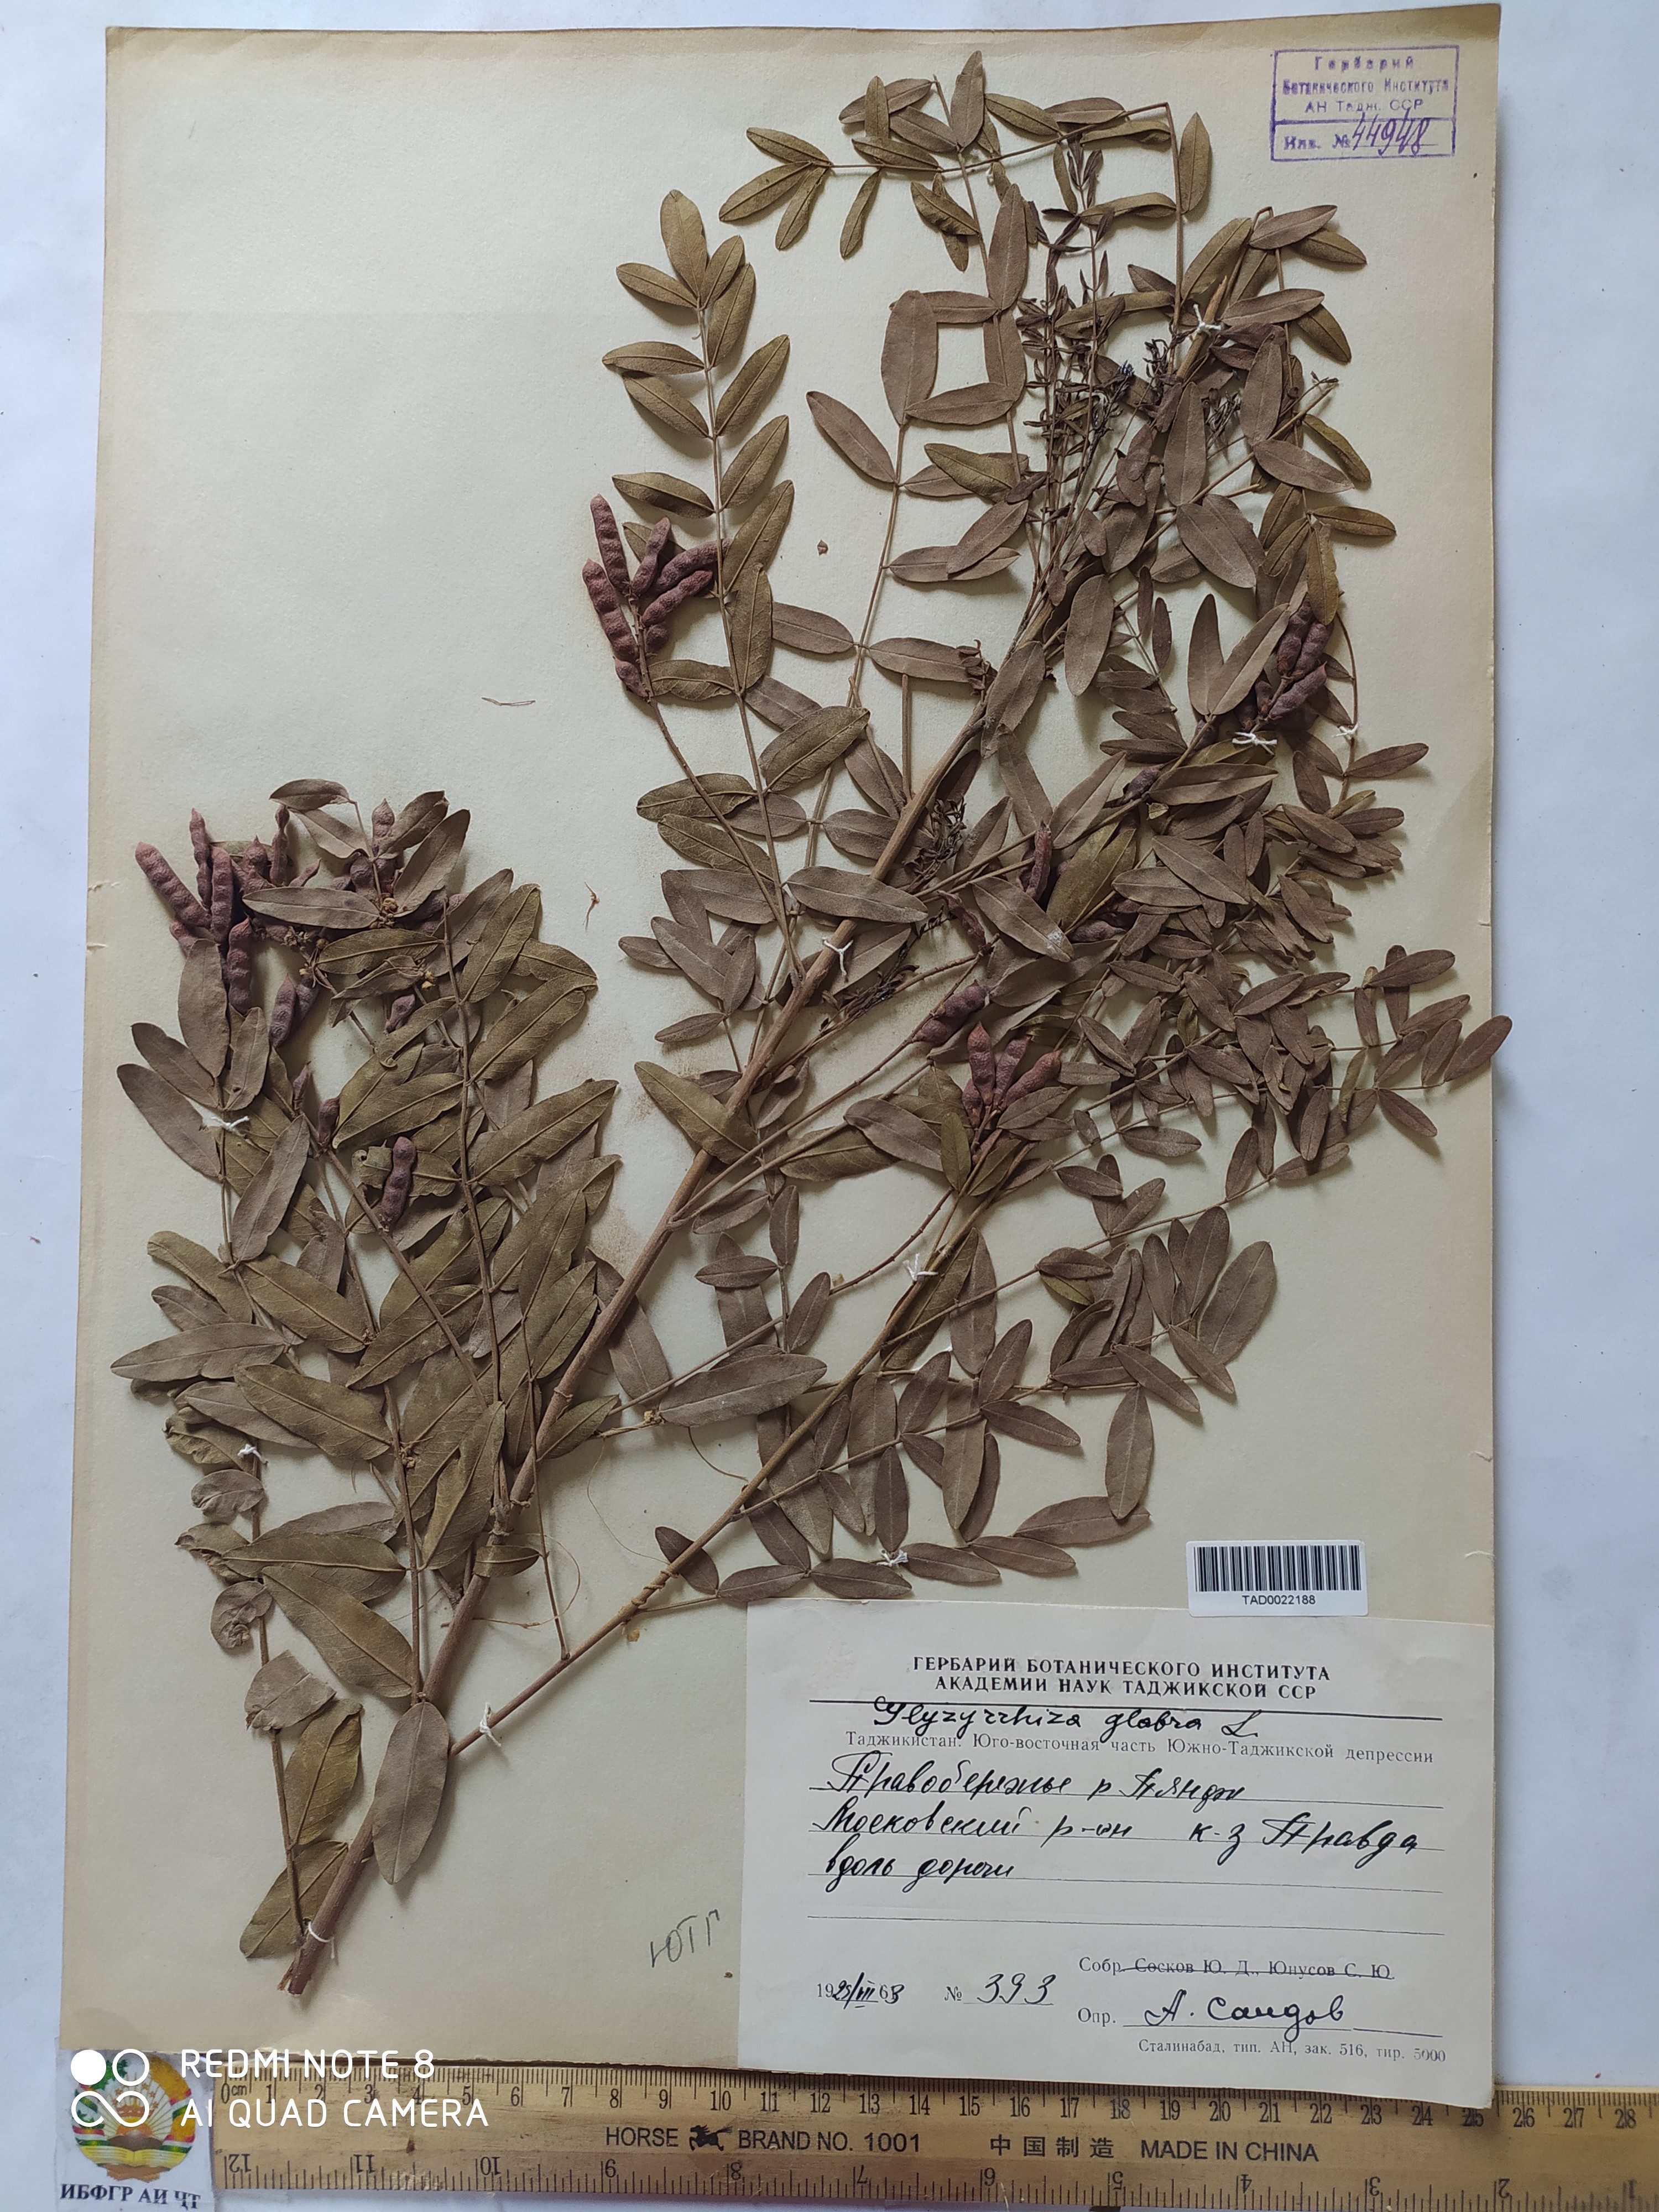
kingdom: Plantae
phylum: Tracheophyta
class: Magnoliopsida
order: Fabales
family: Fabaceae
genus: Glycyrrhiza
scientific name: Glycyrrhiza glabra
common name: Liquorice
